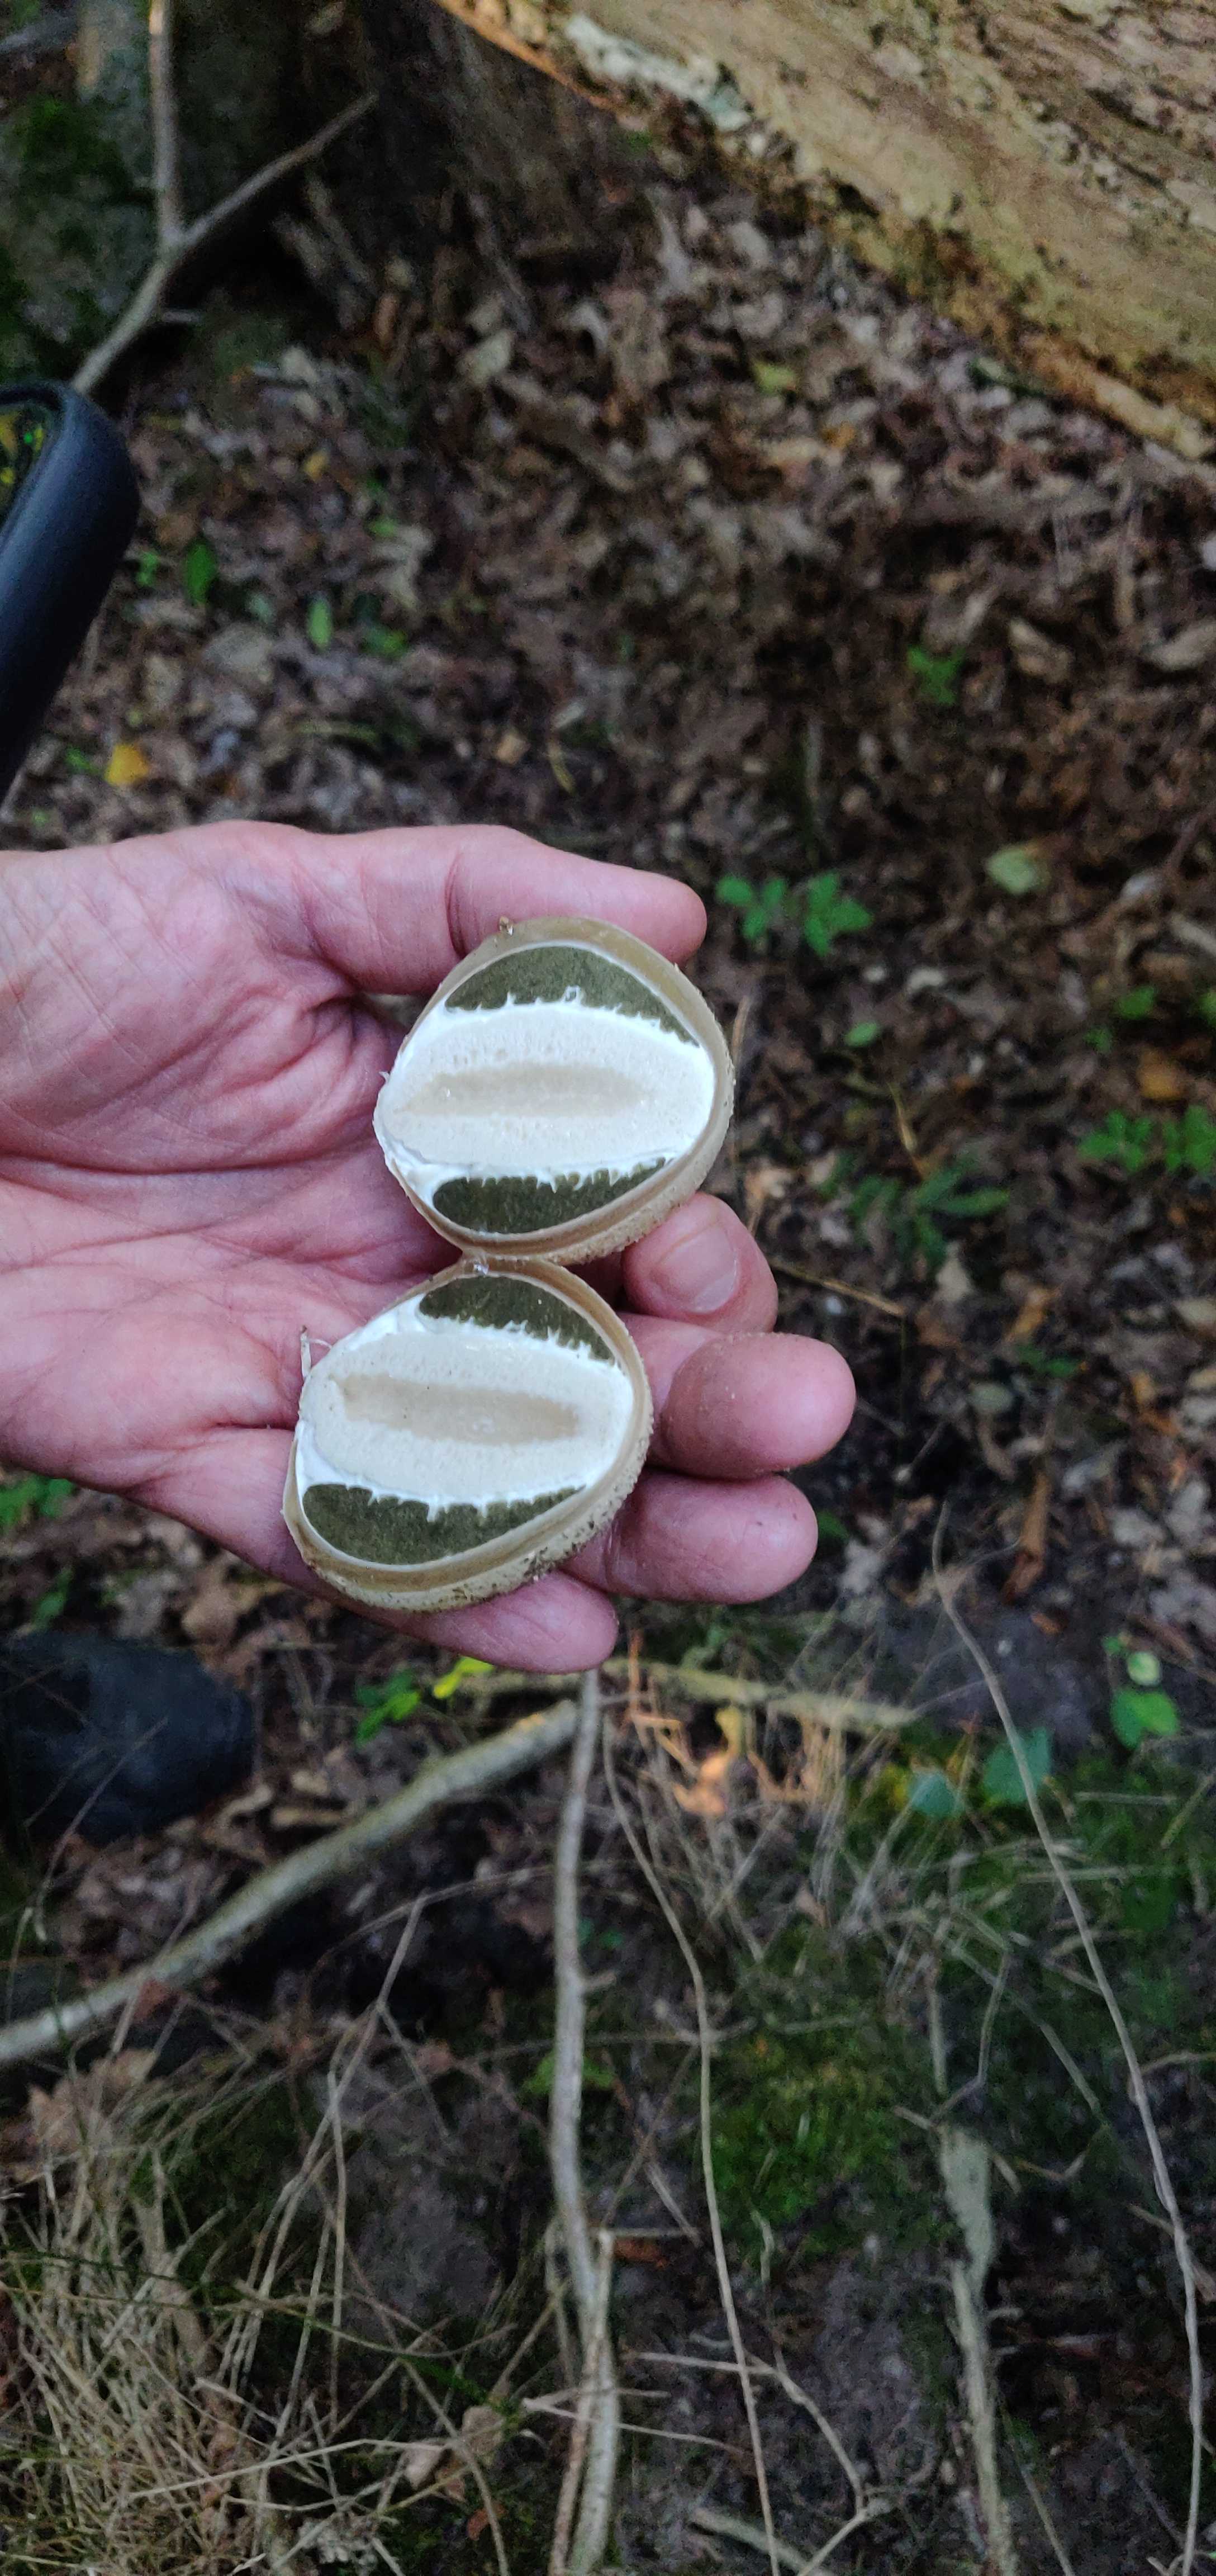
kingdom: Fungi
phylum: Basidiomycota
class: Agaricomycetes
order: Phallales
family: Phallaceae
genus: Phallus
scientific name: Phallus impudicus
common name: almindelig stinksvamp
